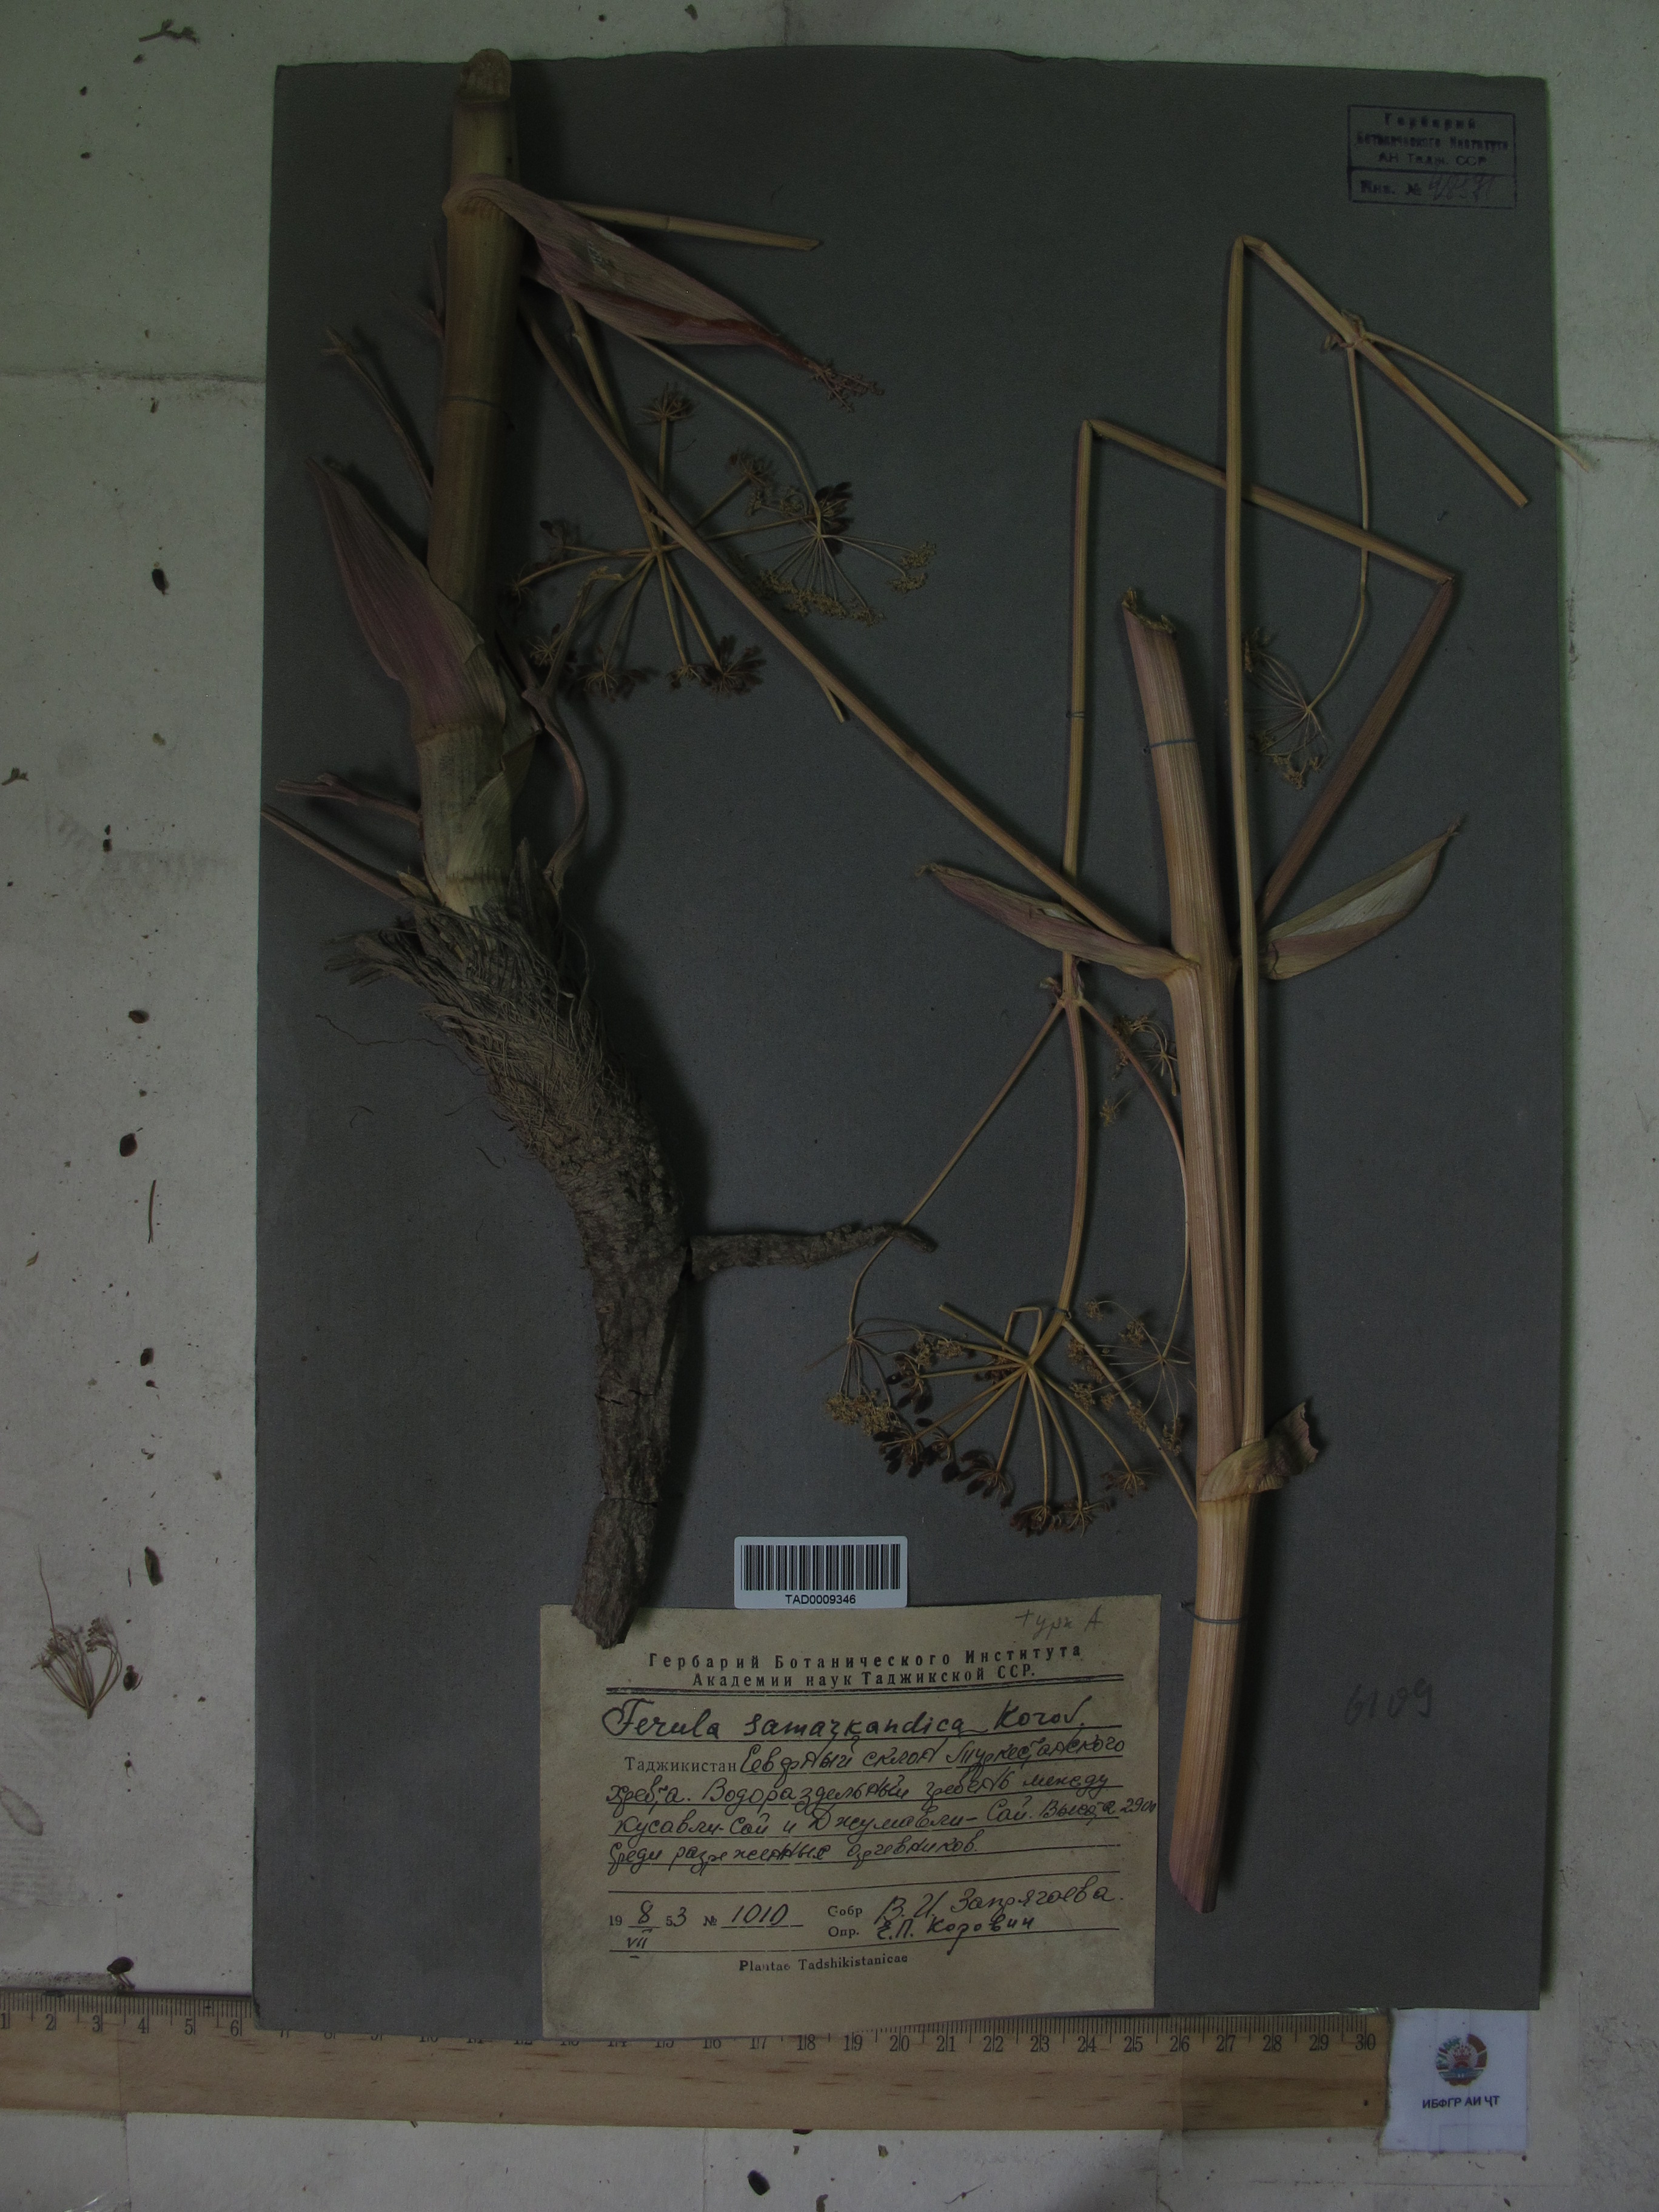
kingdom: Plantae
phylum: Tracheophyta
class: Magnoliopsida
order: Apiales
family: Apiaceae
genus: Ferula
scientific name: Ferula samarkandica
